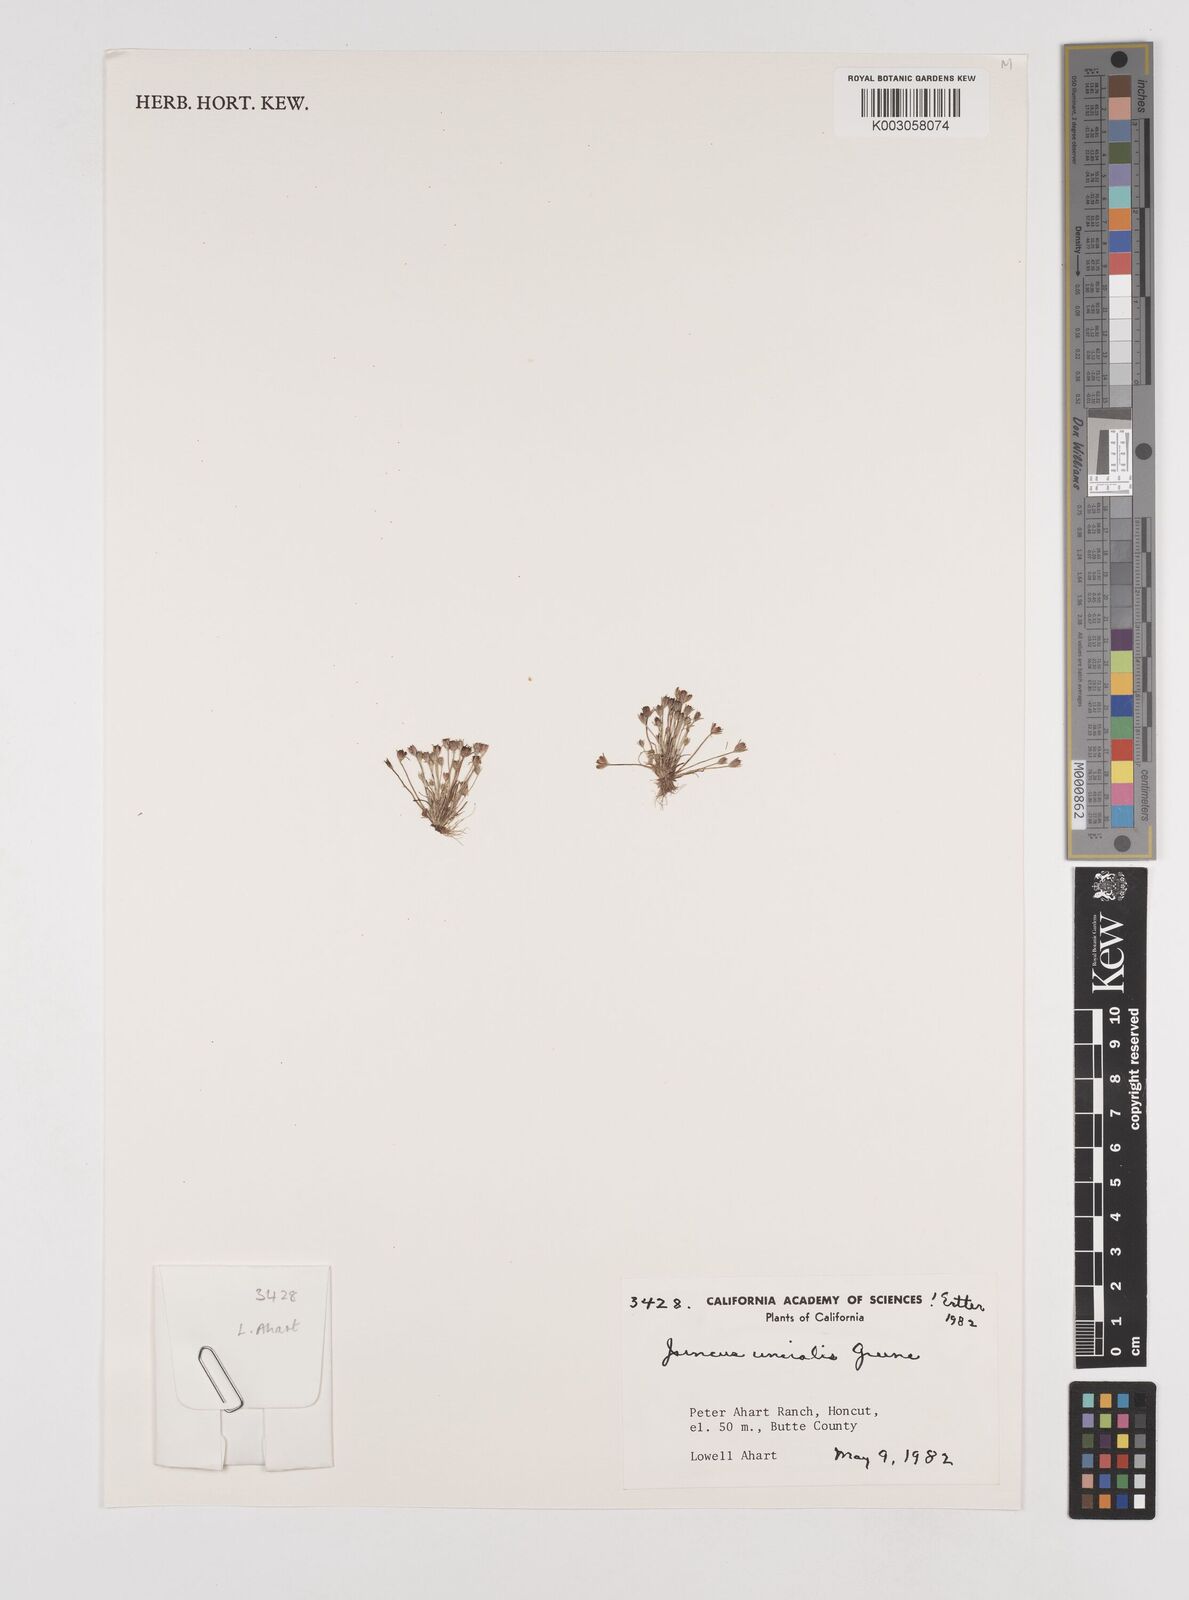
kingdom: Plantae
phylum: Tracheophyta
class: Liliopsida
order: Poales
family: Juncaceae
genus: Juncus
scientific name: Juncus uncialis
